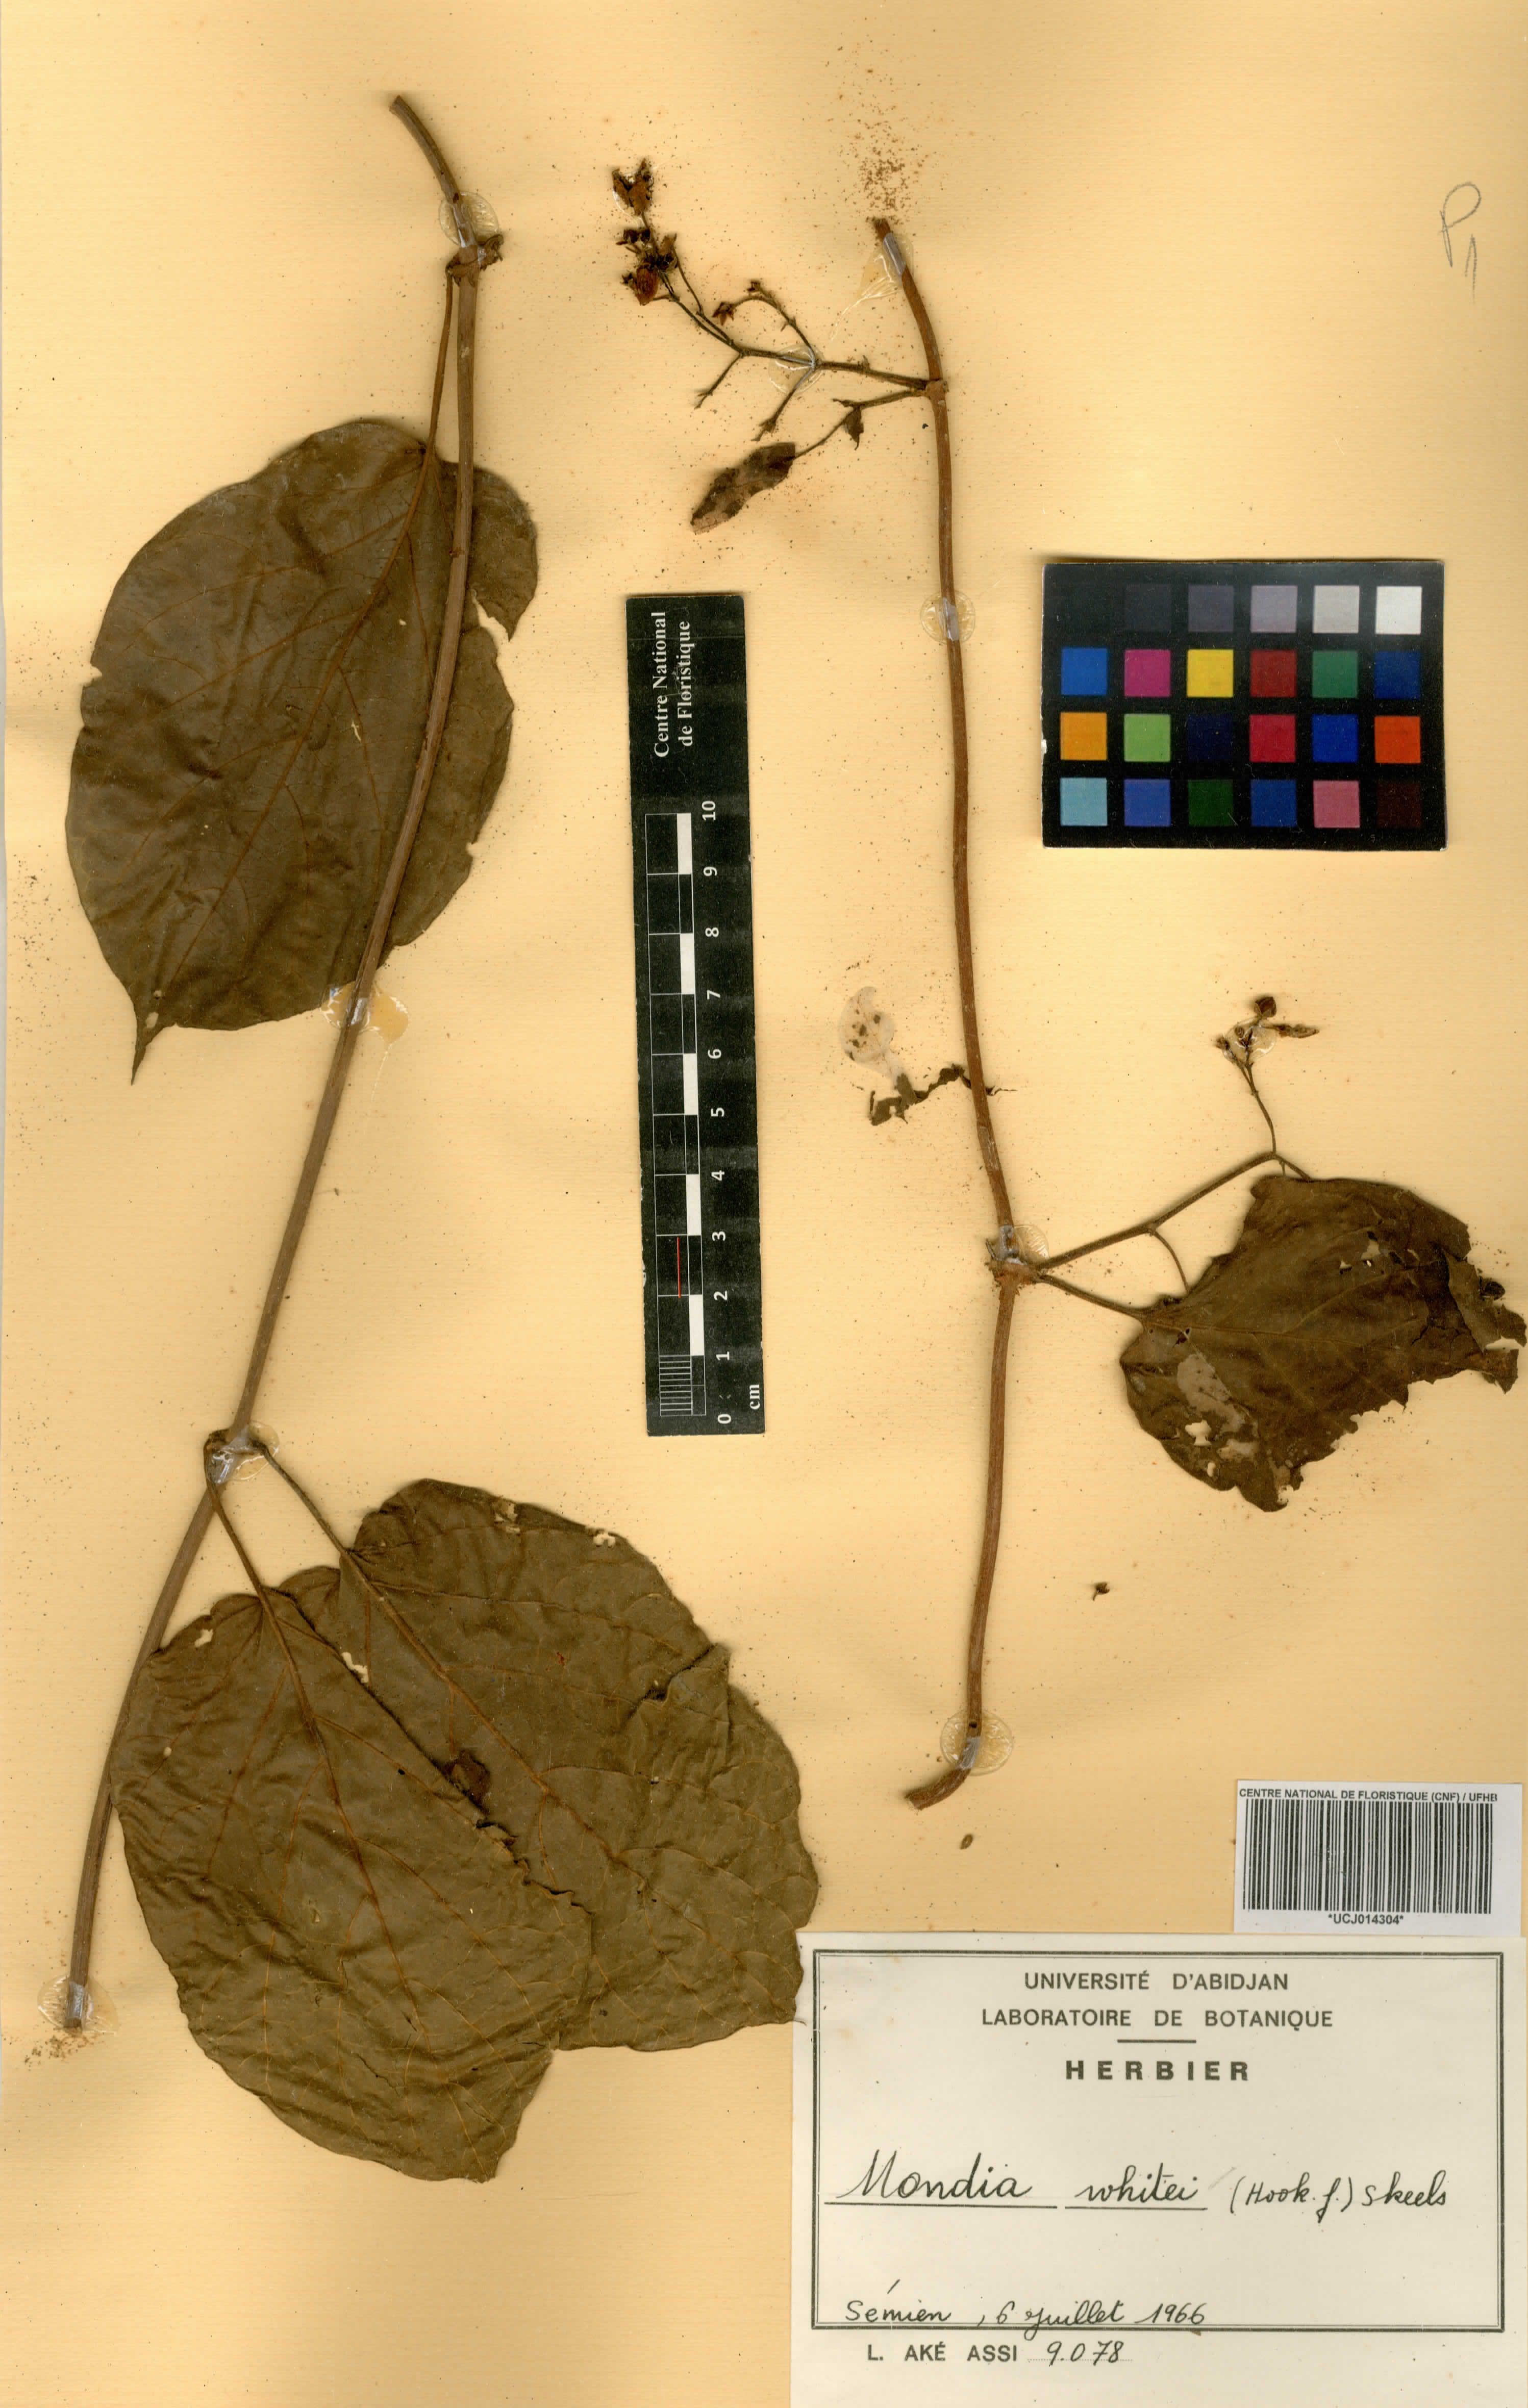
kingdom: Plantae
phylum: Tracheophyta
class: Magnoliopsida
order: Gentianales
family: Apocynaceae
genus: Mondia
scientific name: Mondia whitei
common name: Mondia
